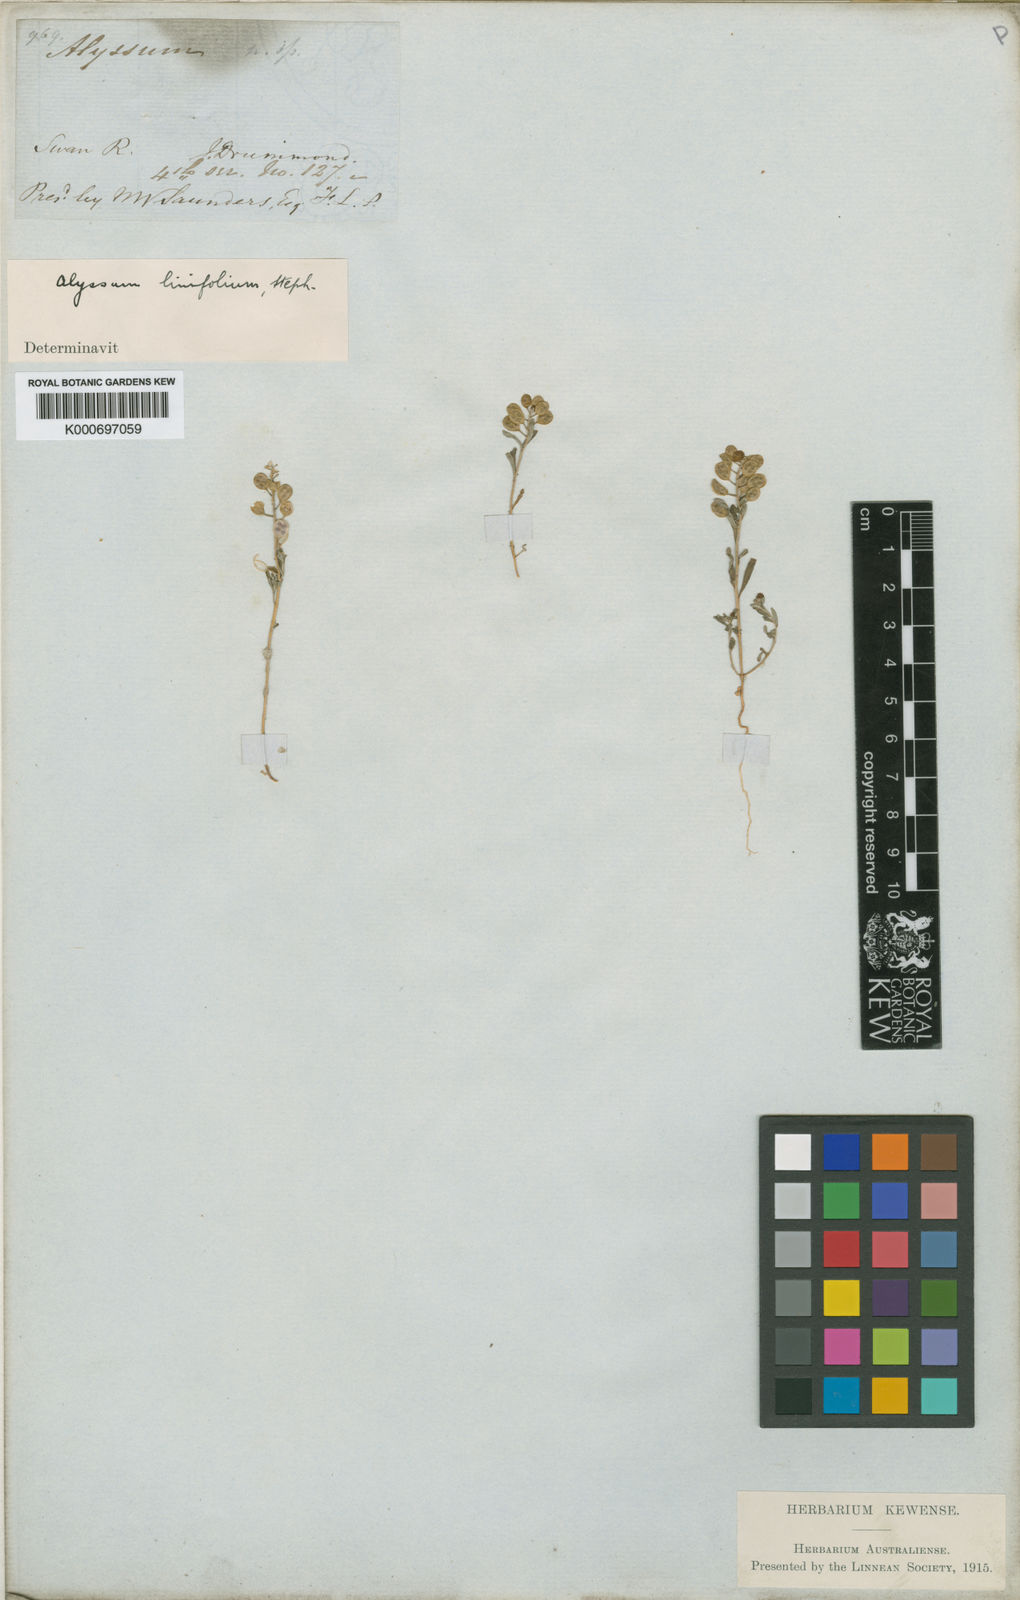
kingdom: Plantae
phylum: Tracheophyta
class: Magnoliopsida
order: Brassicales
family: Brassicaceae
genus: Meniocus
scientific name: Meniocus linifolius
